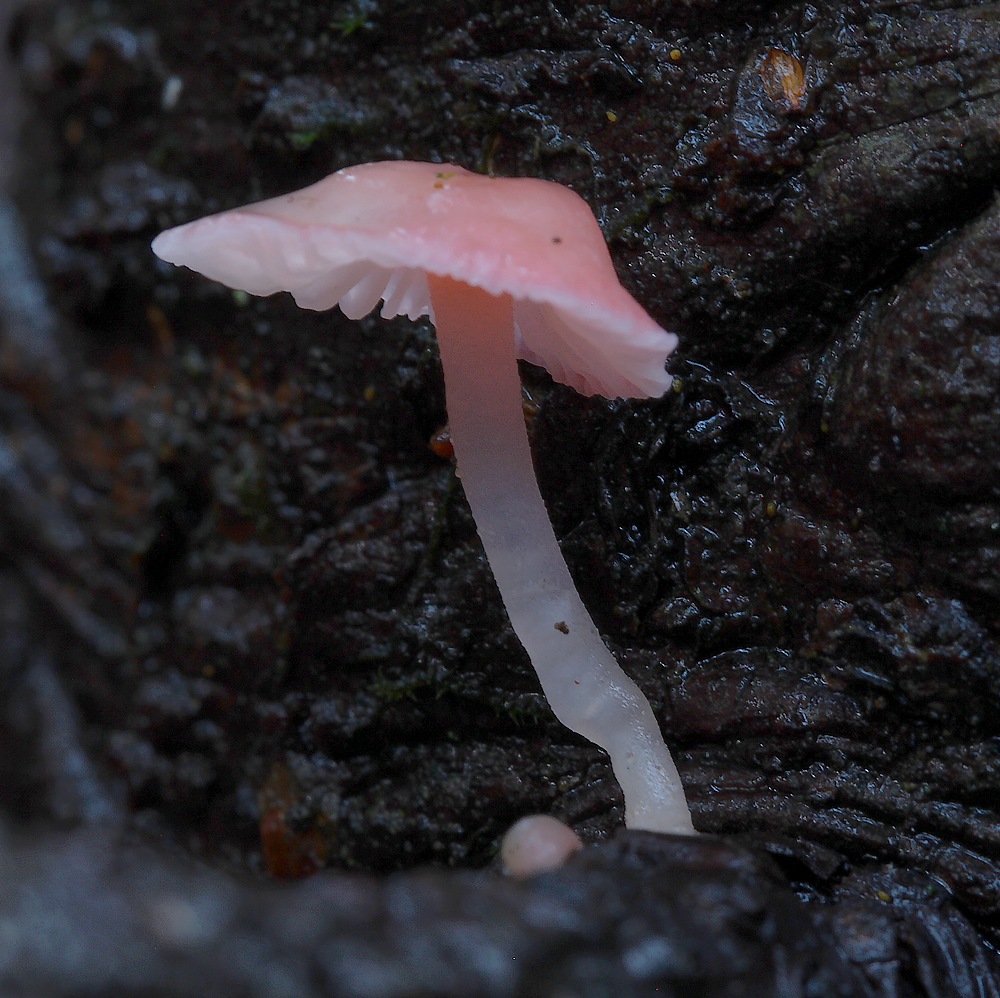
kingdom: Fungi
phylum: Basidiomycota
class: Agaricomycetes
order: Agaricales
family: Mycenaceae
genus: Mycena
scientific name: Mycena coccinea
